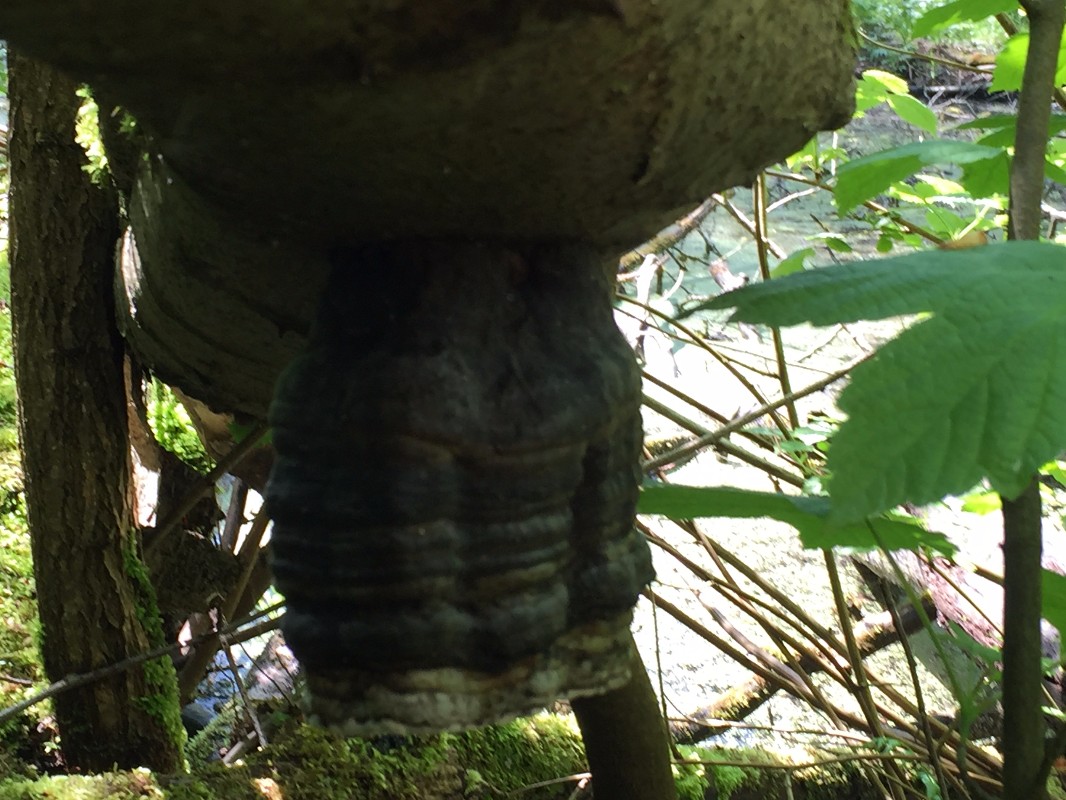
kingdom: Fungi
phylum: Basidiomycota
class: Agaricomycetes
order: Polyporales
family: Polyporaceae
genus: Fomes
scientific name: Fomes fomentarius
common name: tøndersvamp
